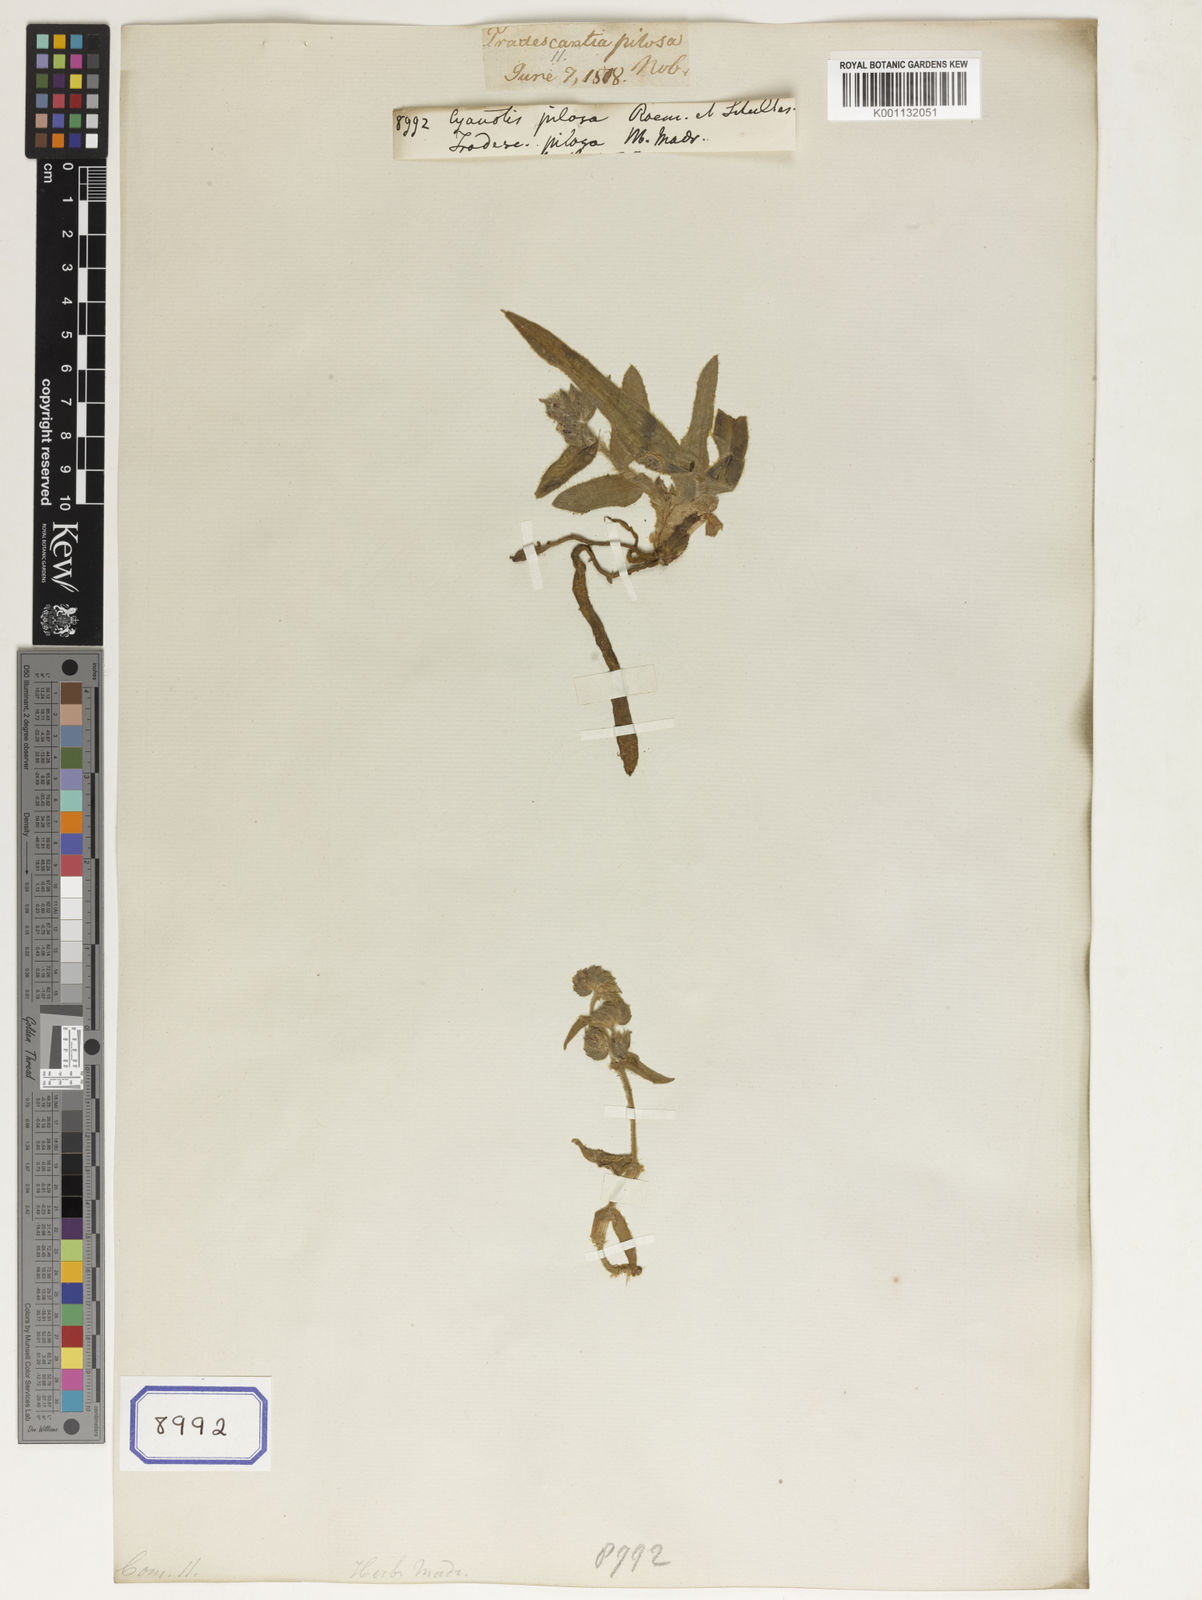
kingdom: Plantae
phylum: Tracheophyta
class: Liliopsida
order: Commelinales
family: Commelinaceae
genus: Cyanotis
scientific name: Cyanotis pilosa
